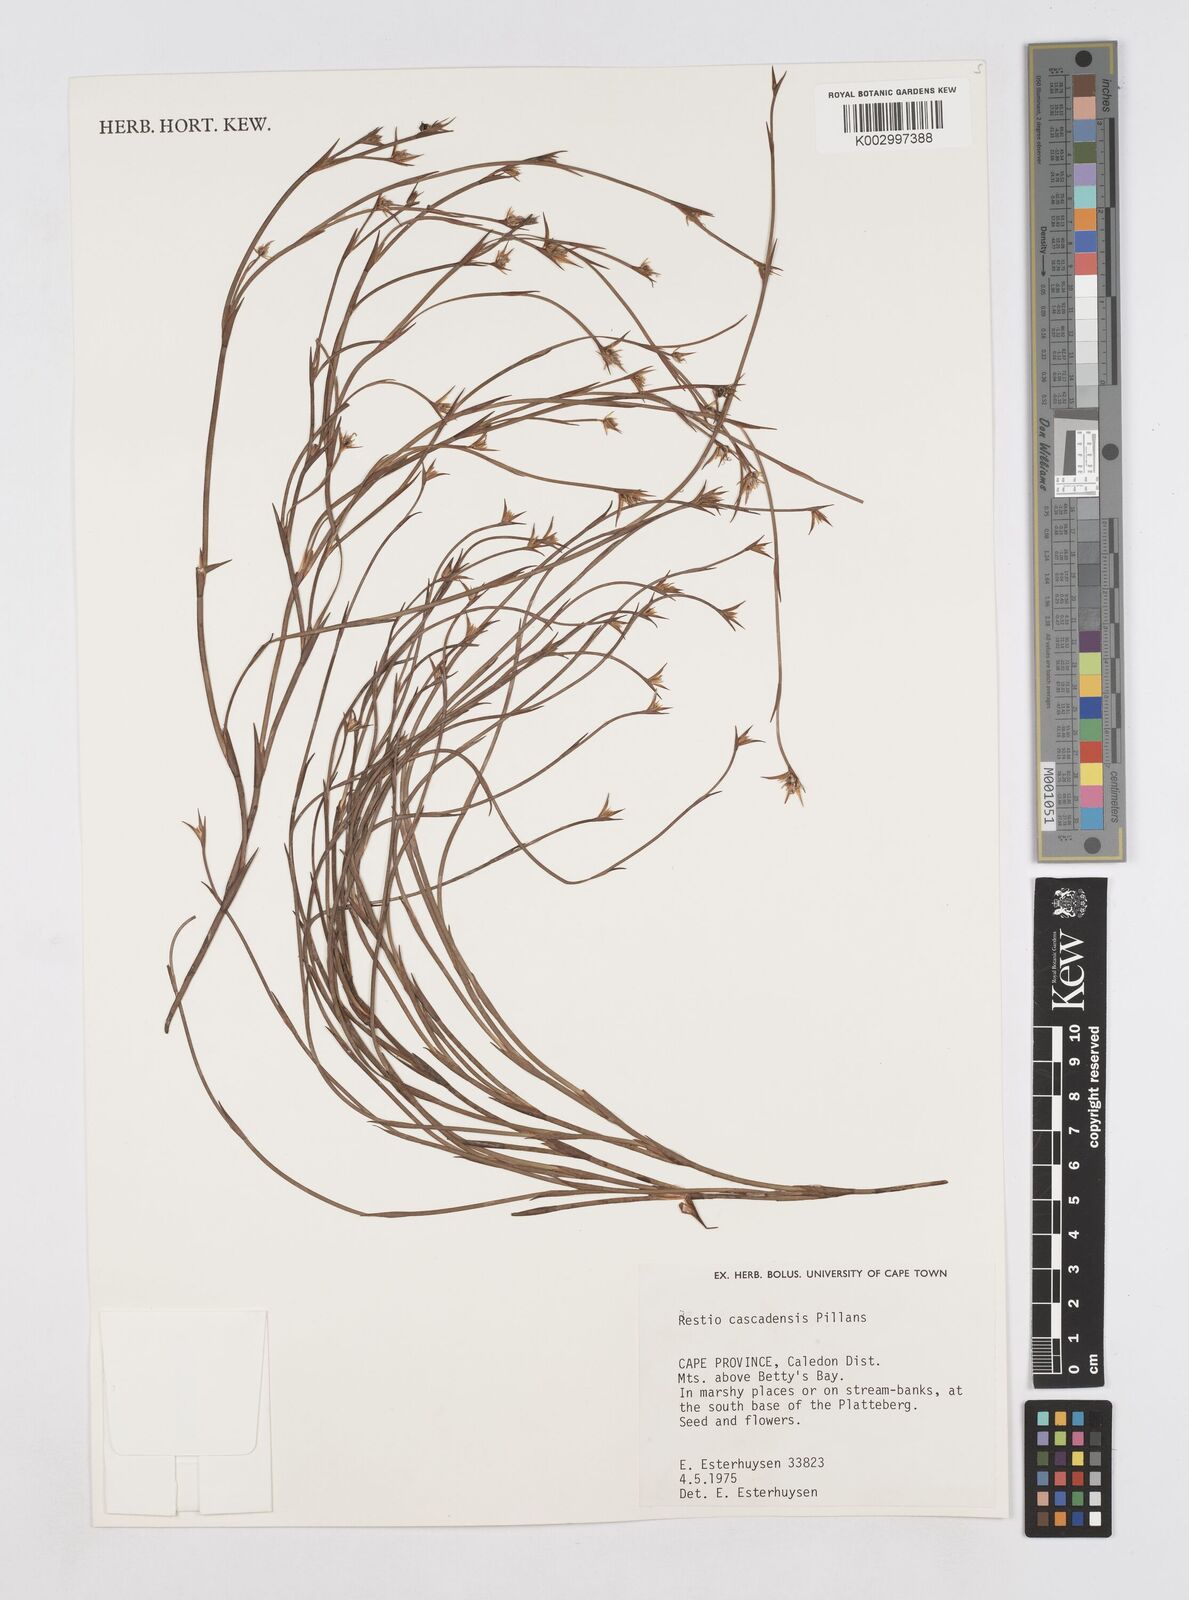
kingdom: Plantae
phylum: Tracheophyta
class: Liliopsida
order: Poales
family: Restionaceae
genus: Platycaulos
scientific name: Platycaulos cascadensis
